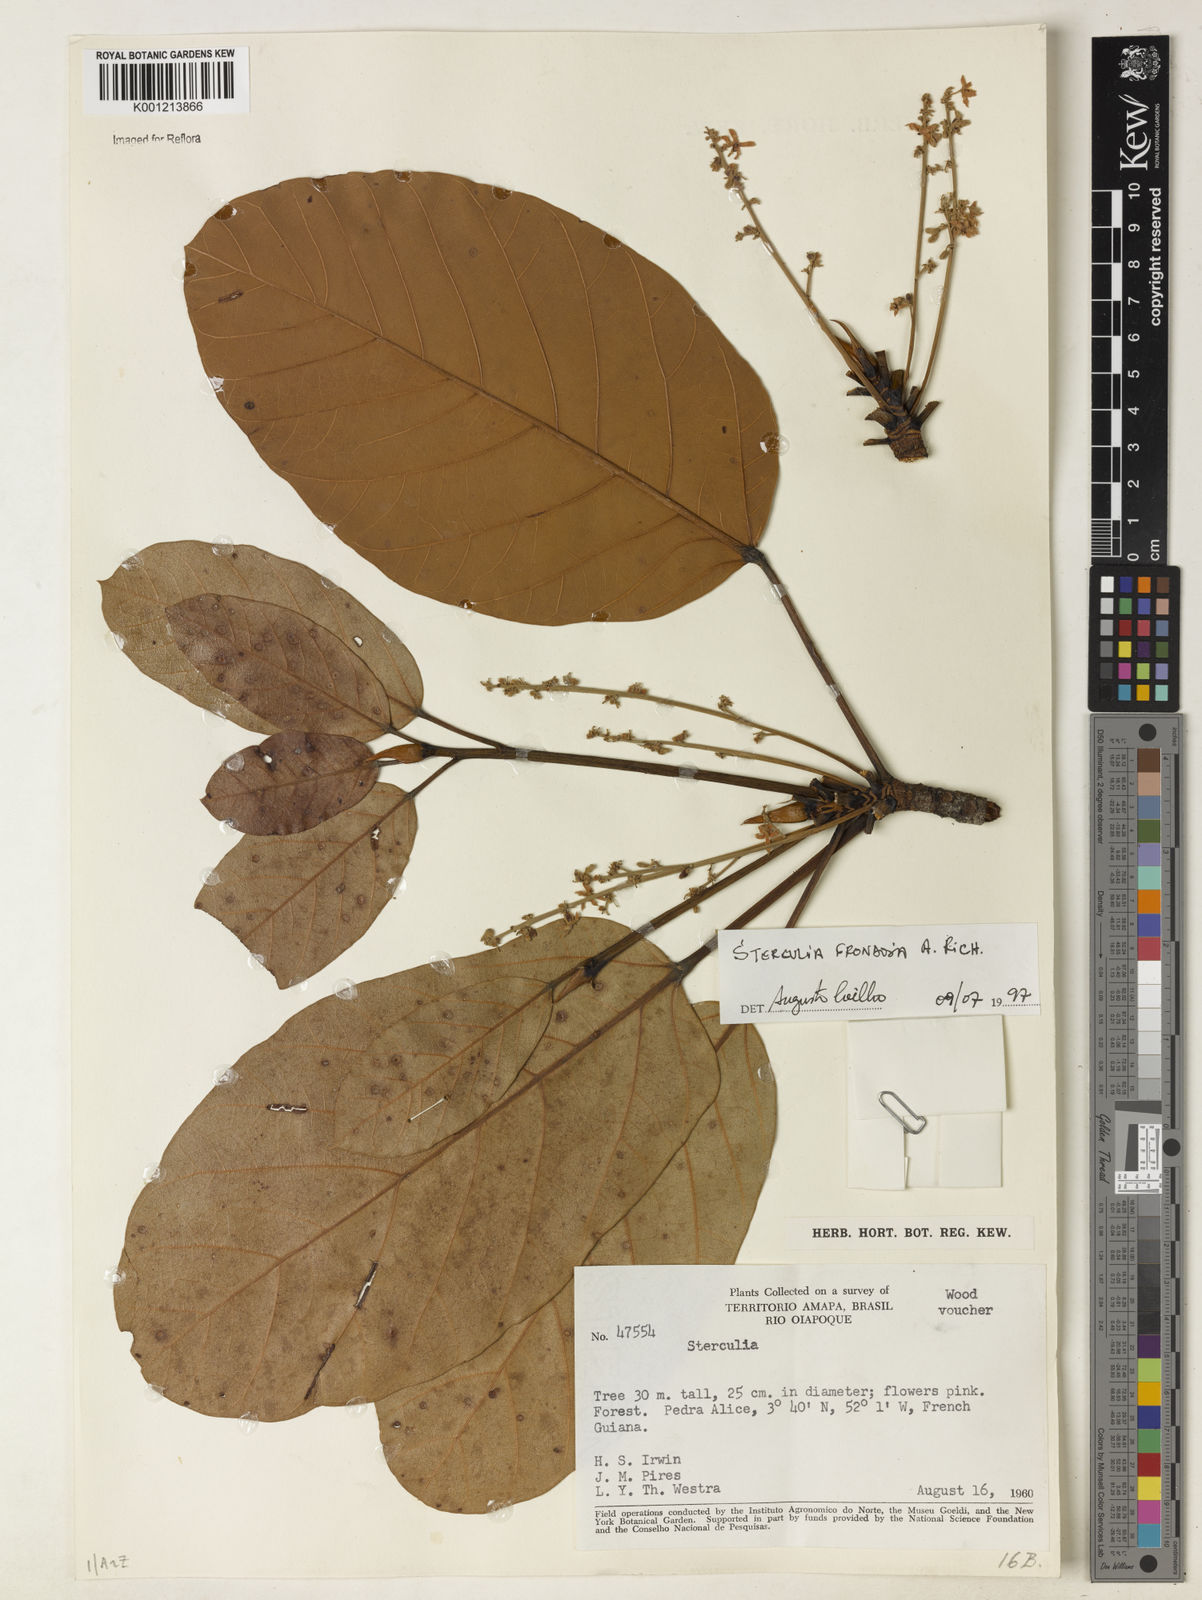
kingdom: Plantae
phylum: Tracheophyta
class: Magnoliopsida
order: Malvales
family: Malvaceae
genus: Sterculia
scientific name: Sterculia frondosa
